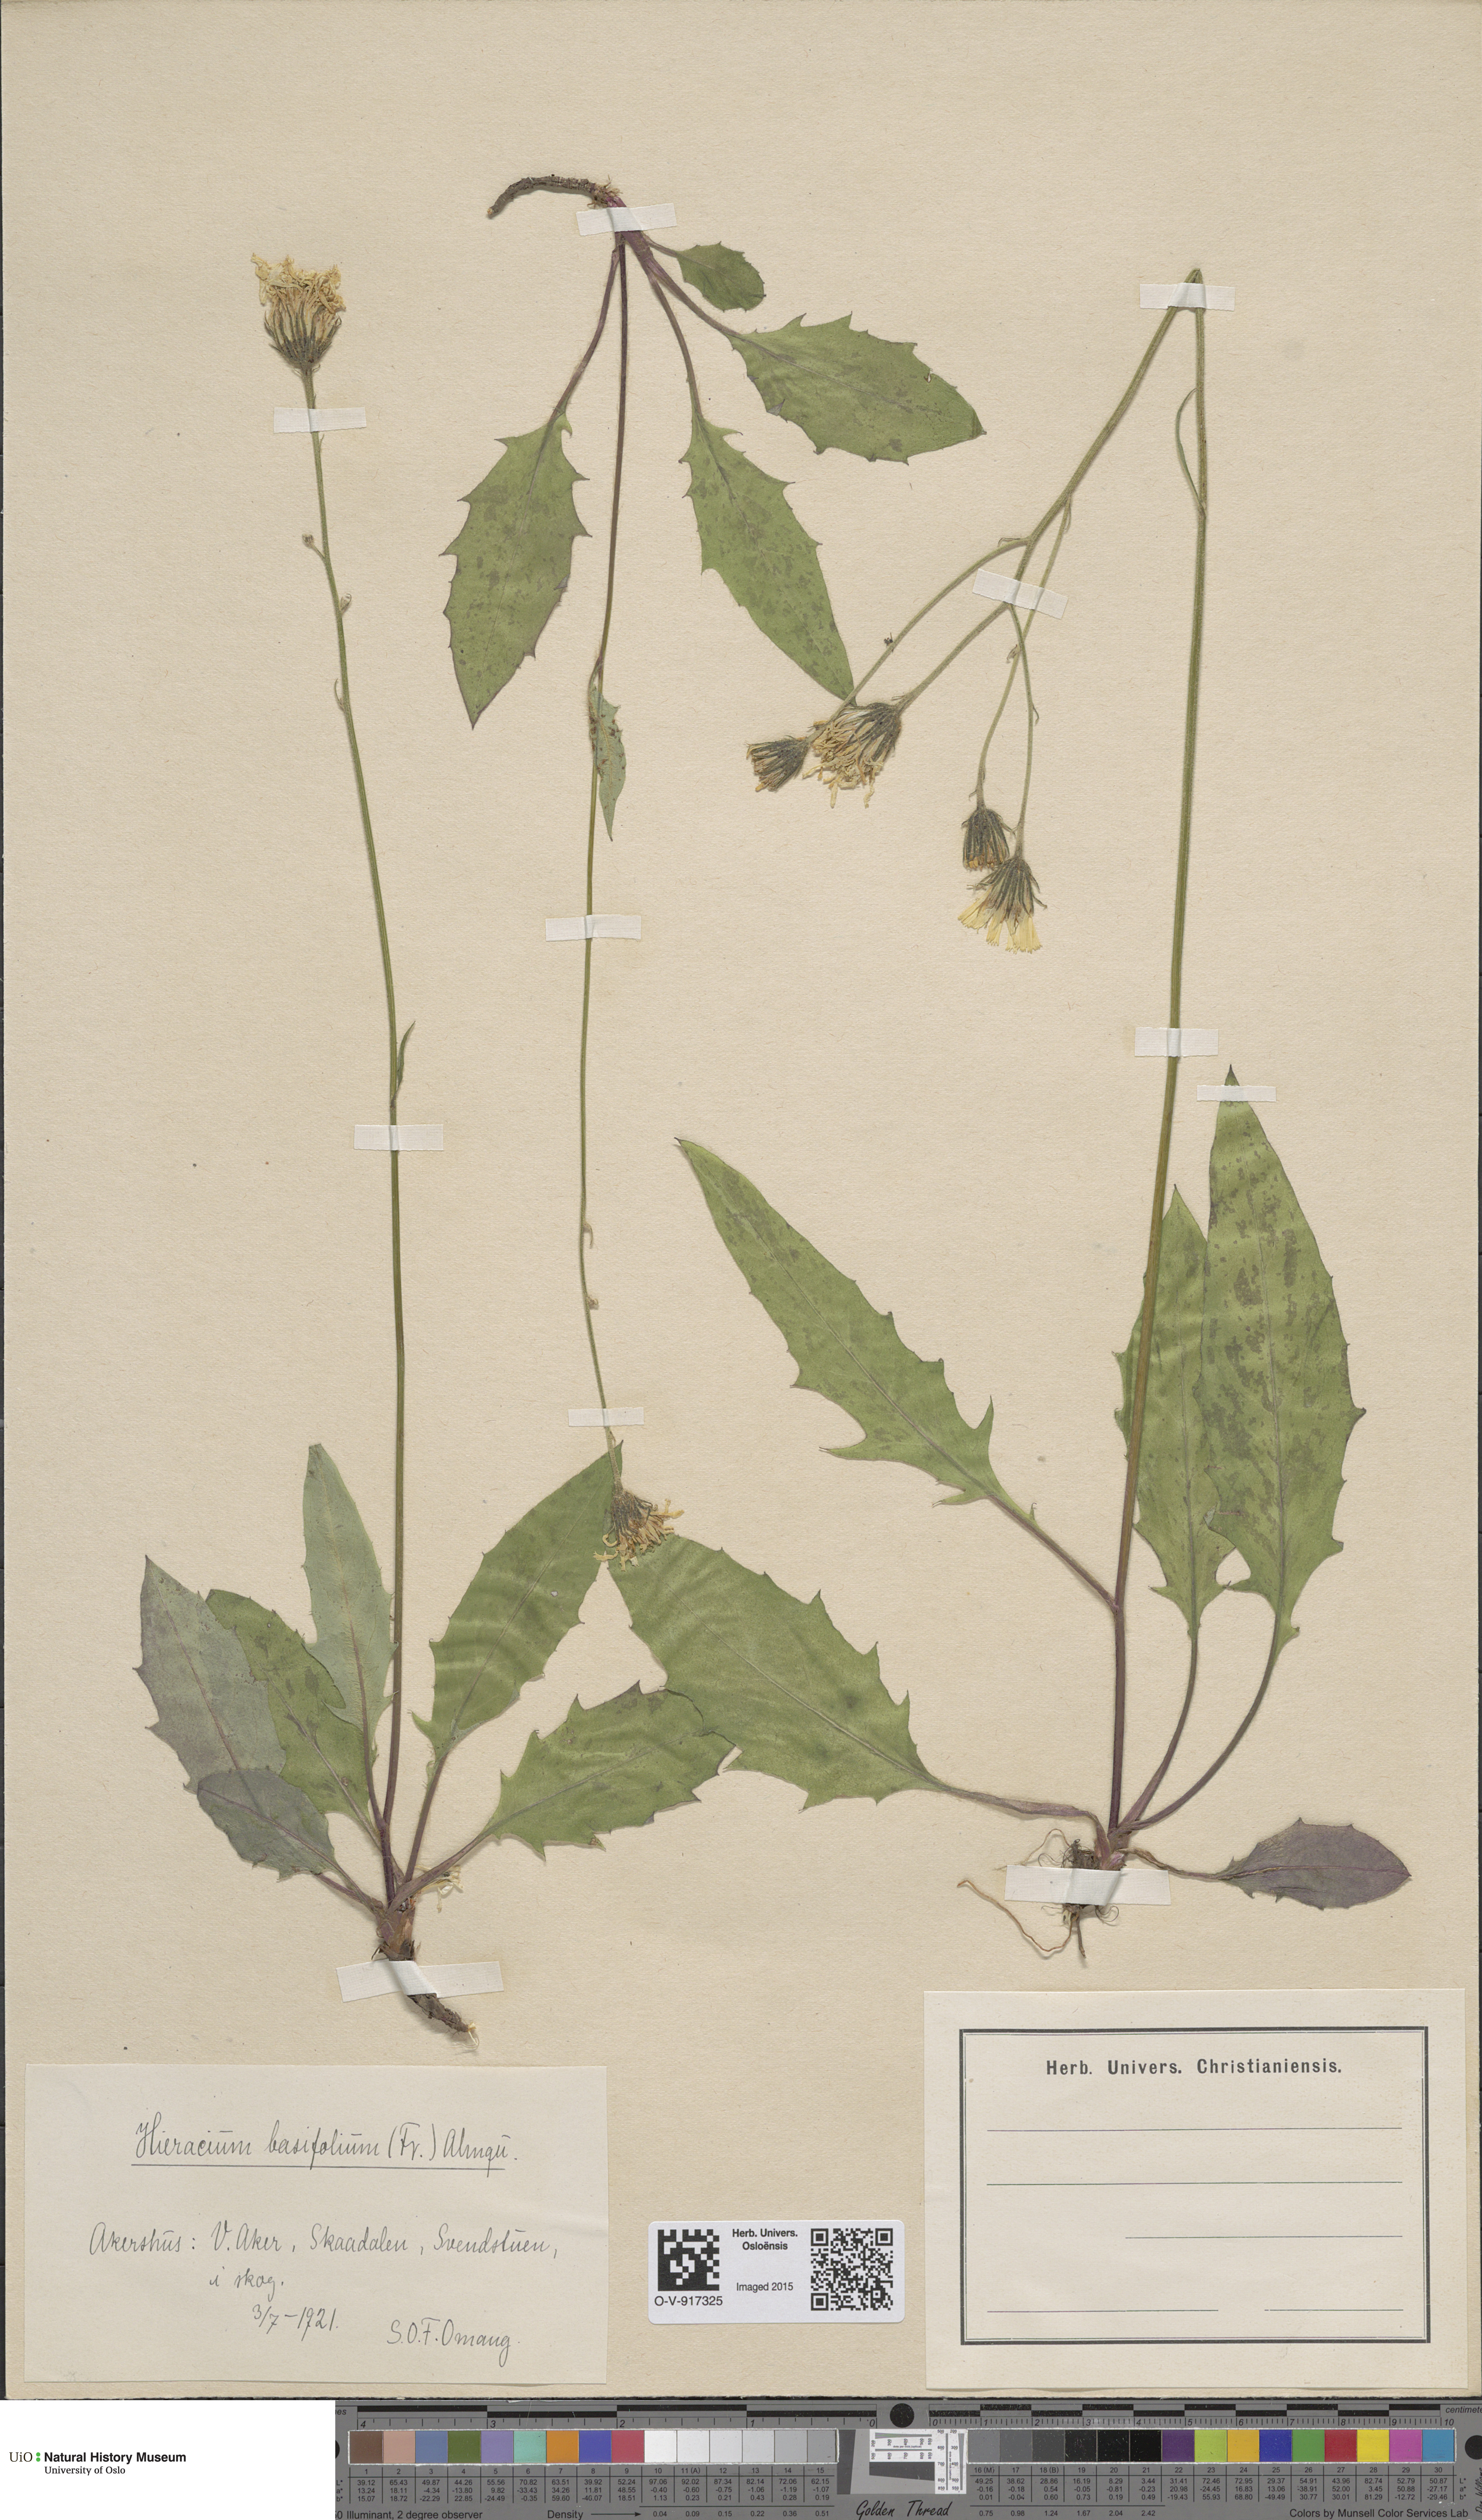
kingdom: Plantae
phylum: Tracheophyta
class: Magnoliopsida
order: Asterales
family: Asteraceae
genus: Hieracium
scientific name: Hieracium basifolium
